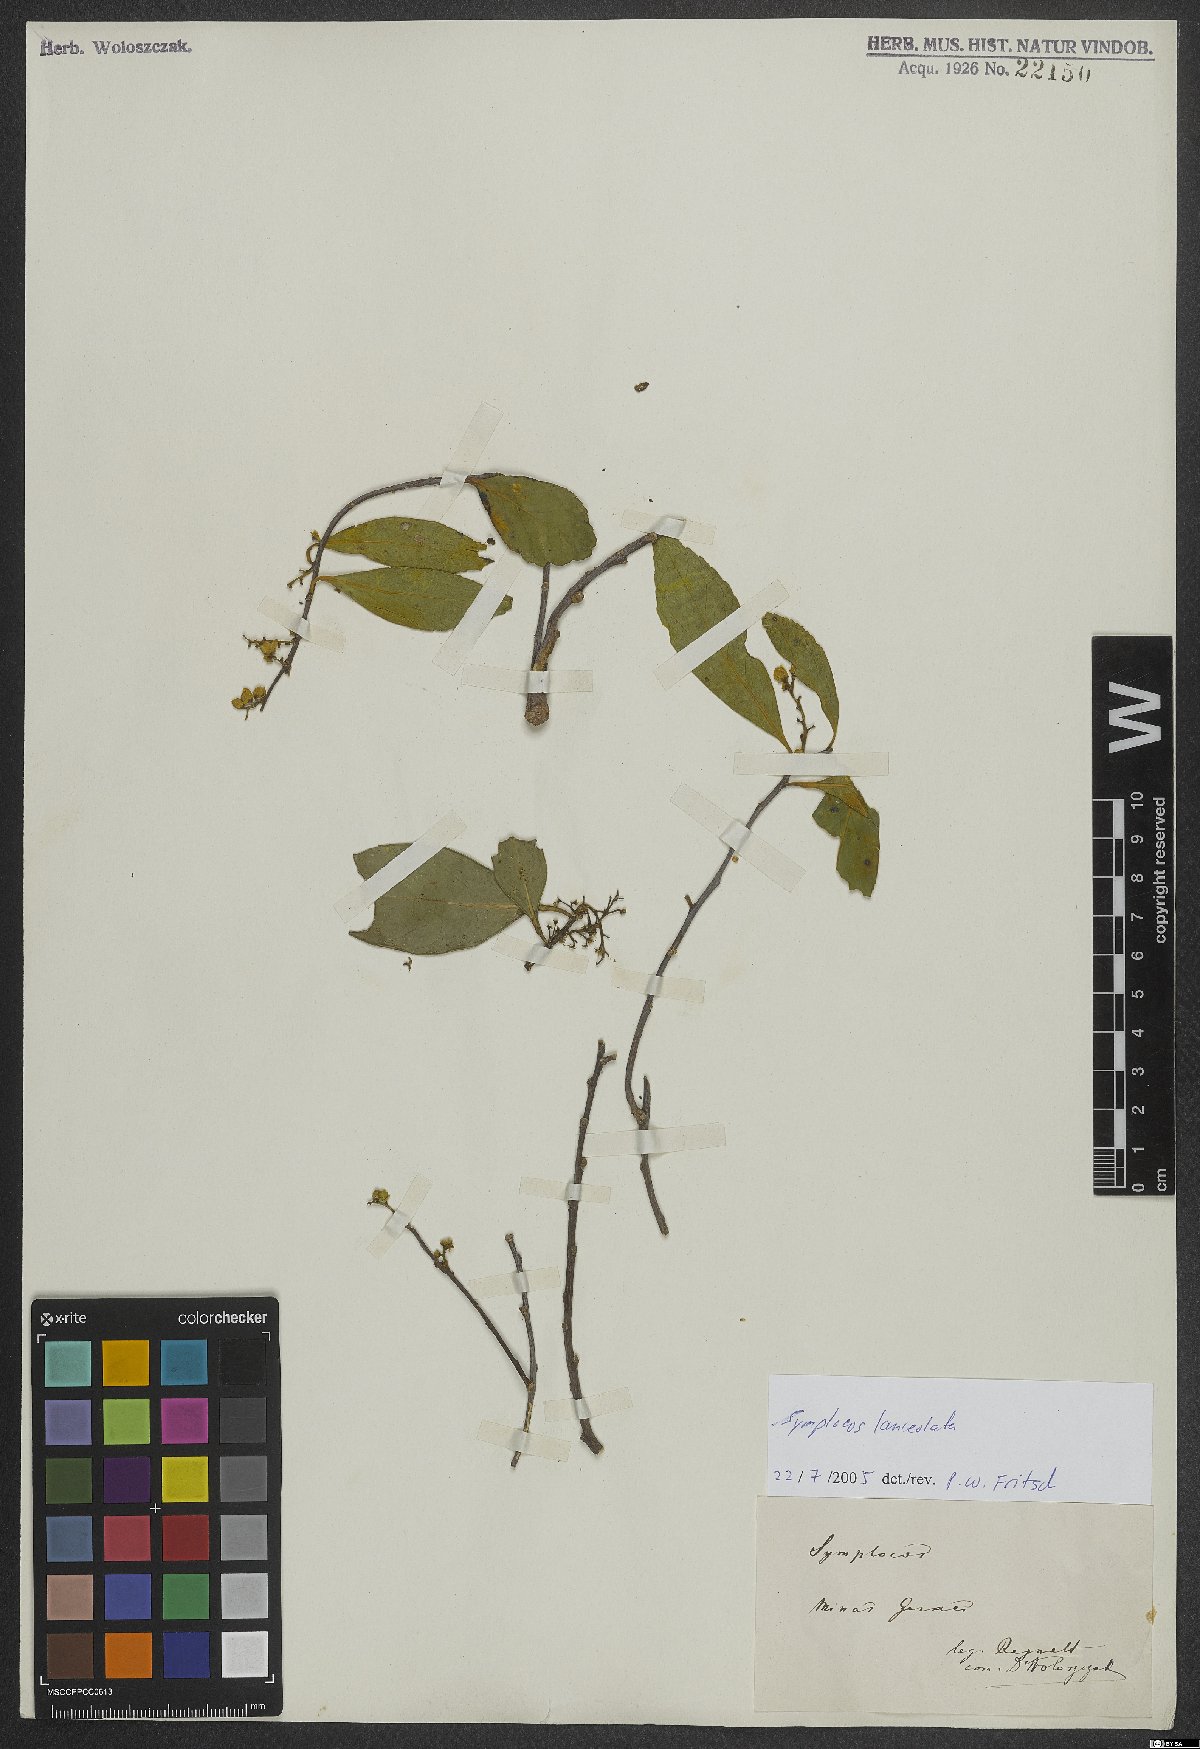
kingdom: Plantae
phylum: Tracheophyta
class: Magnoliopsida
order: Ericales
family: Symplocaceae
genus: Symplocos
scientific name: Symplocos oblongifolia
